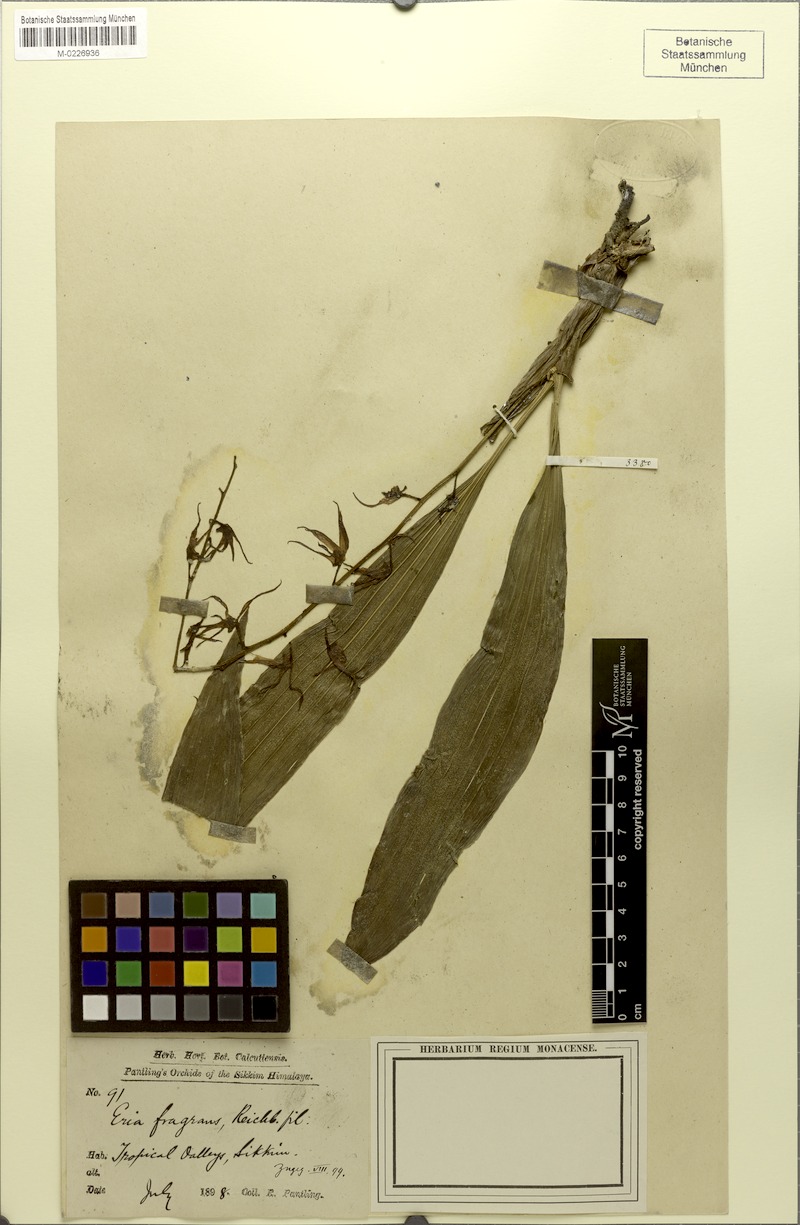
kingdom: Plantae
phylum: Tracheophyta
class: Liliopsida
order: Asparagales
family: Orchidaceae
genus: Eria
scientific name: Eria javanica
